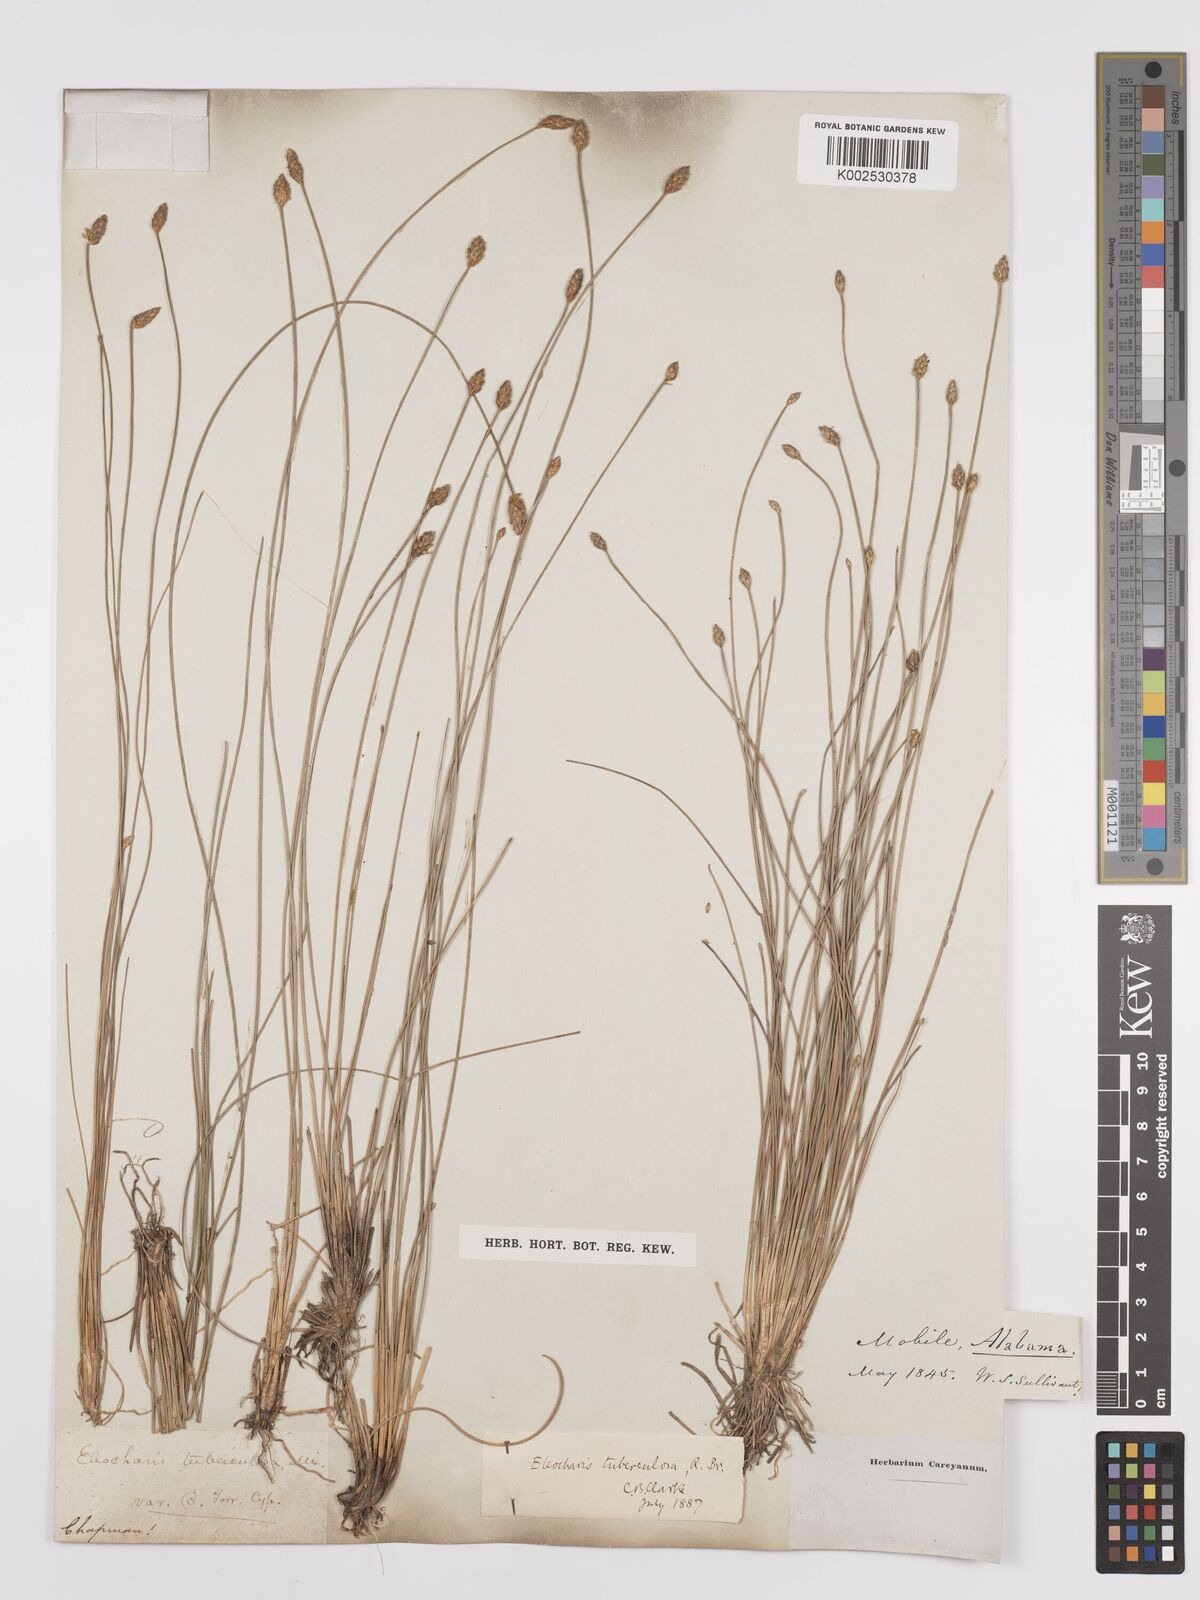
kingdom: Plantae
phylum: Tracheophyta
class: Liliopsida
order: Poales
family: Cyperaceae
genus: Eleocharis
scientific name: Eleocharis tuberculosa
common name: Cone-cup spikerush
